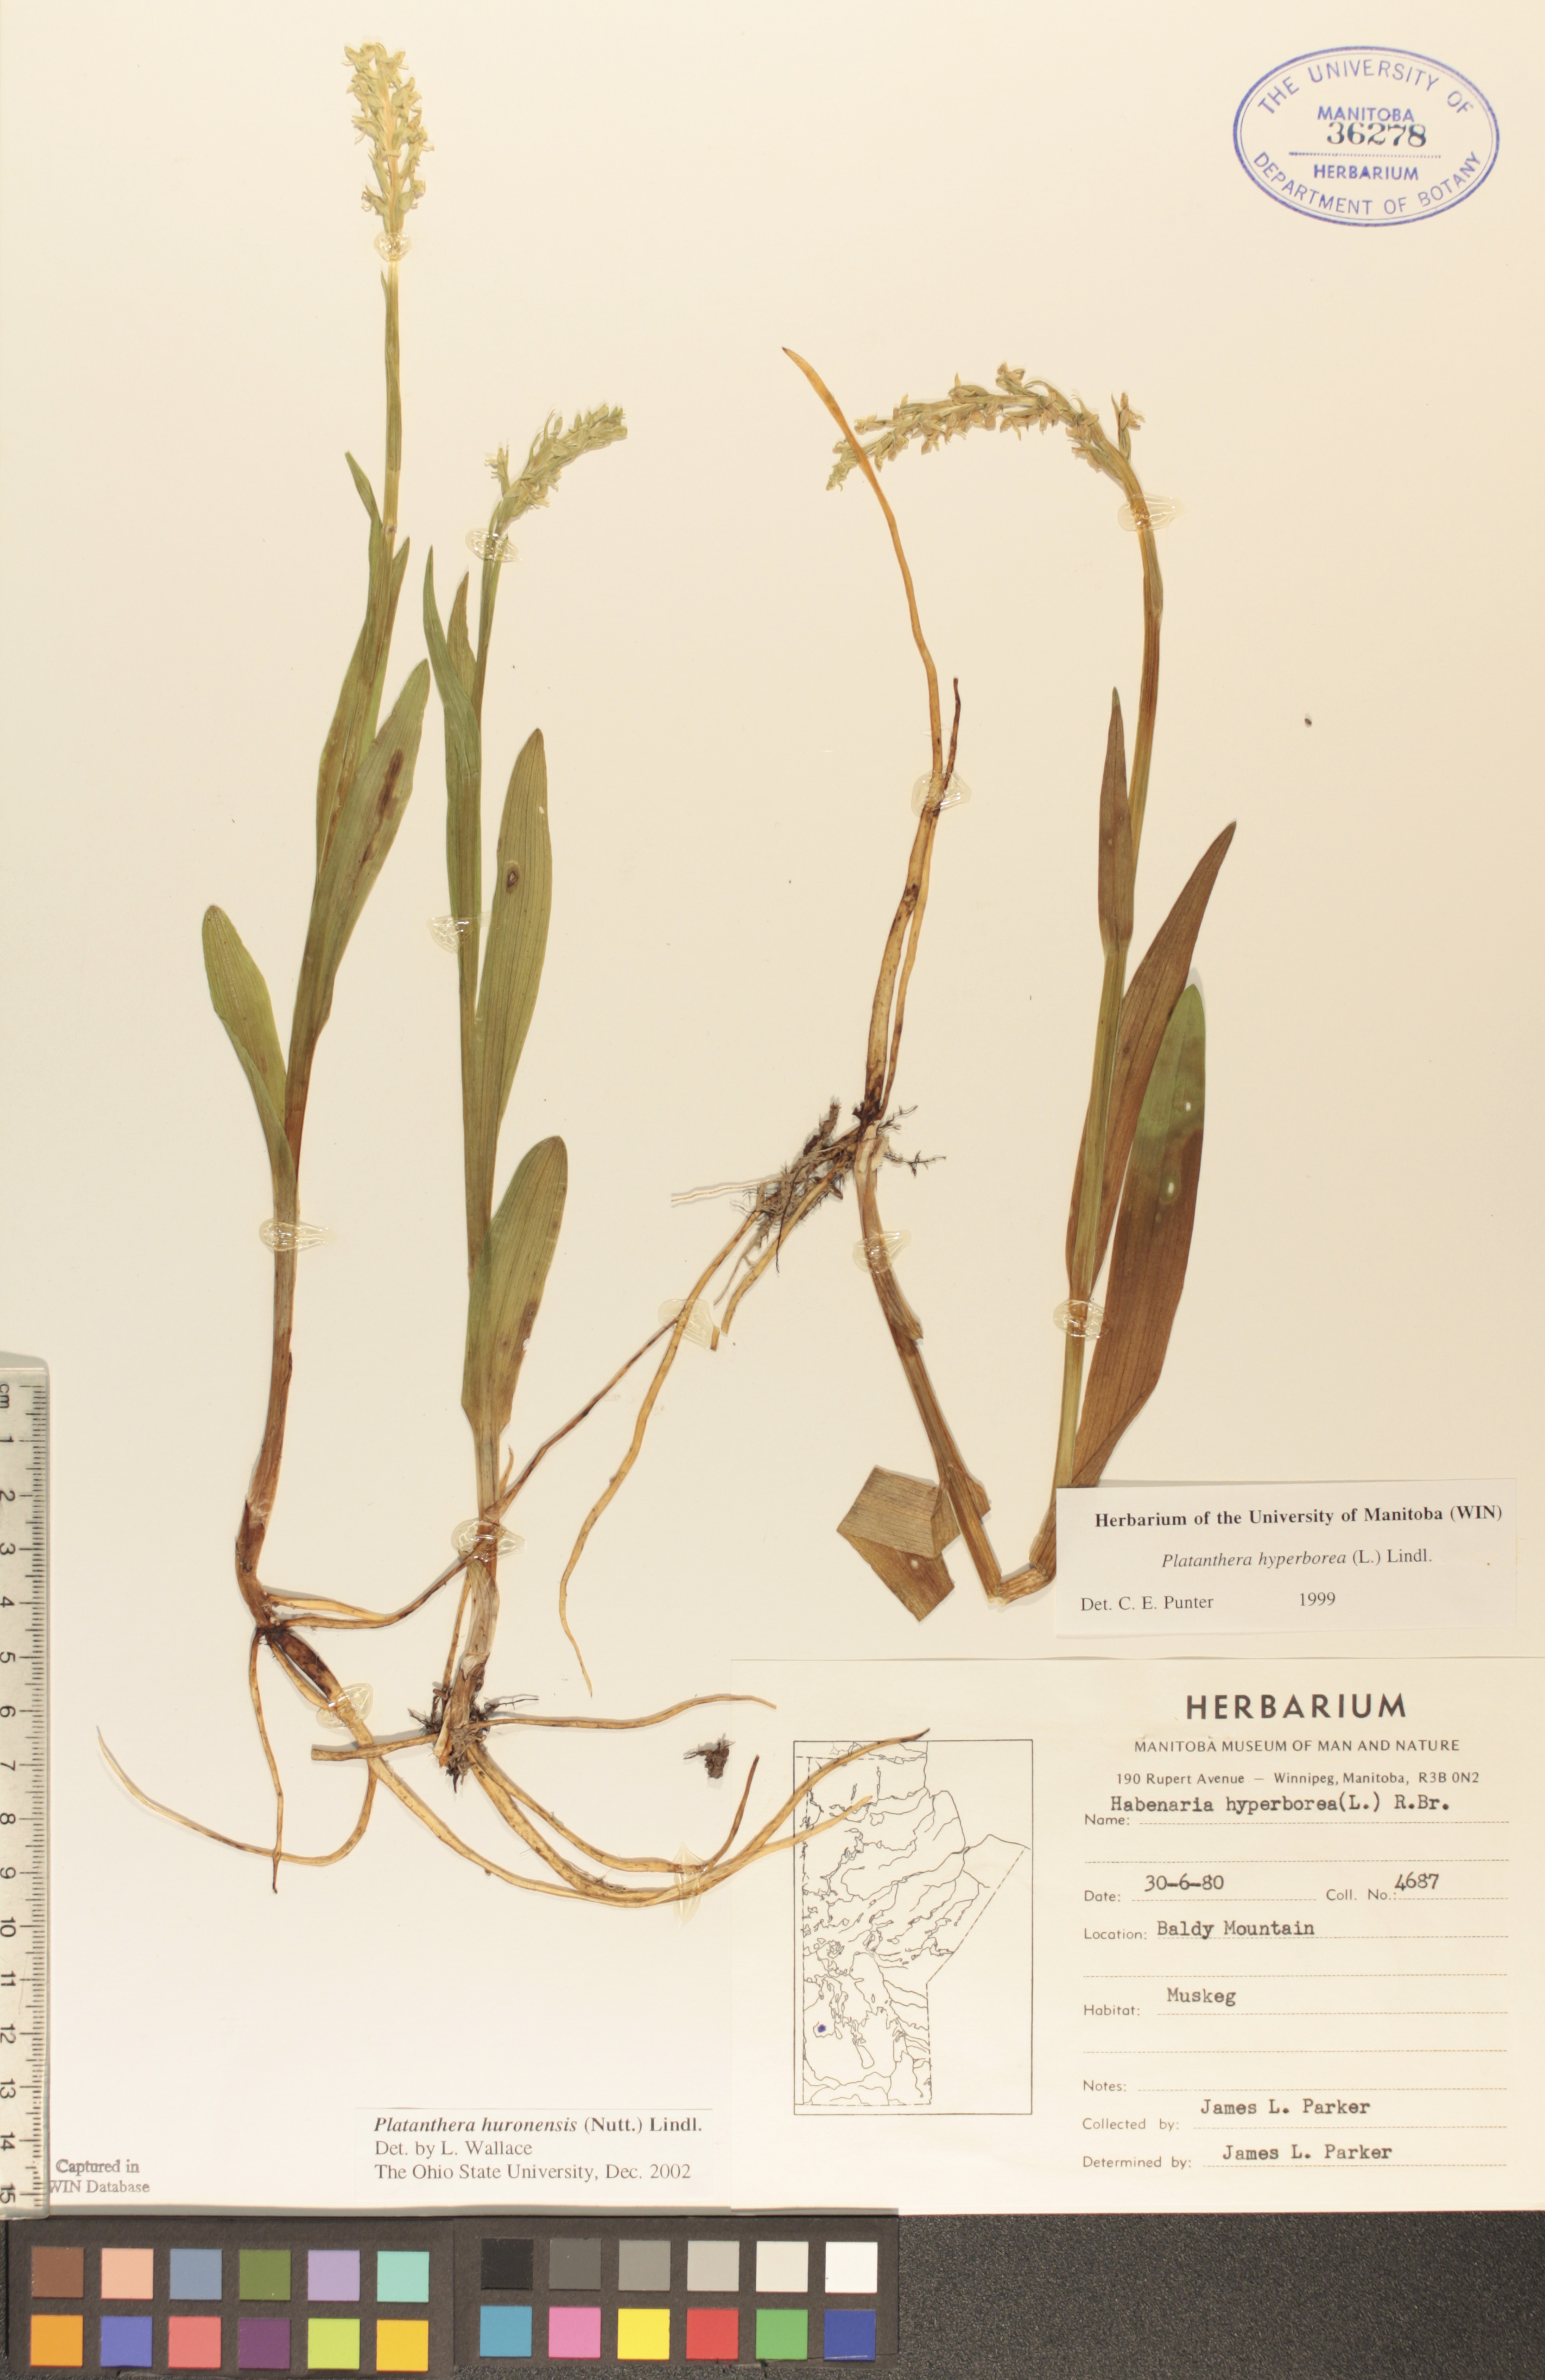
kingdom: Plantae
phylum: Tracheophyta
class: Liliopsida
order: Asparagales
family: Orchidaceae
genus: Platanthera
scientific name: Platanthera huronensis
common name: Fragrant green orchid
